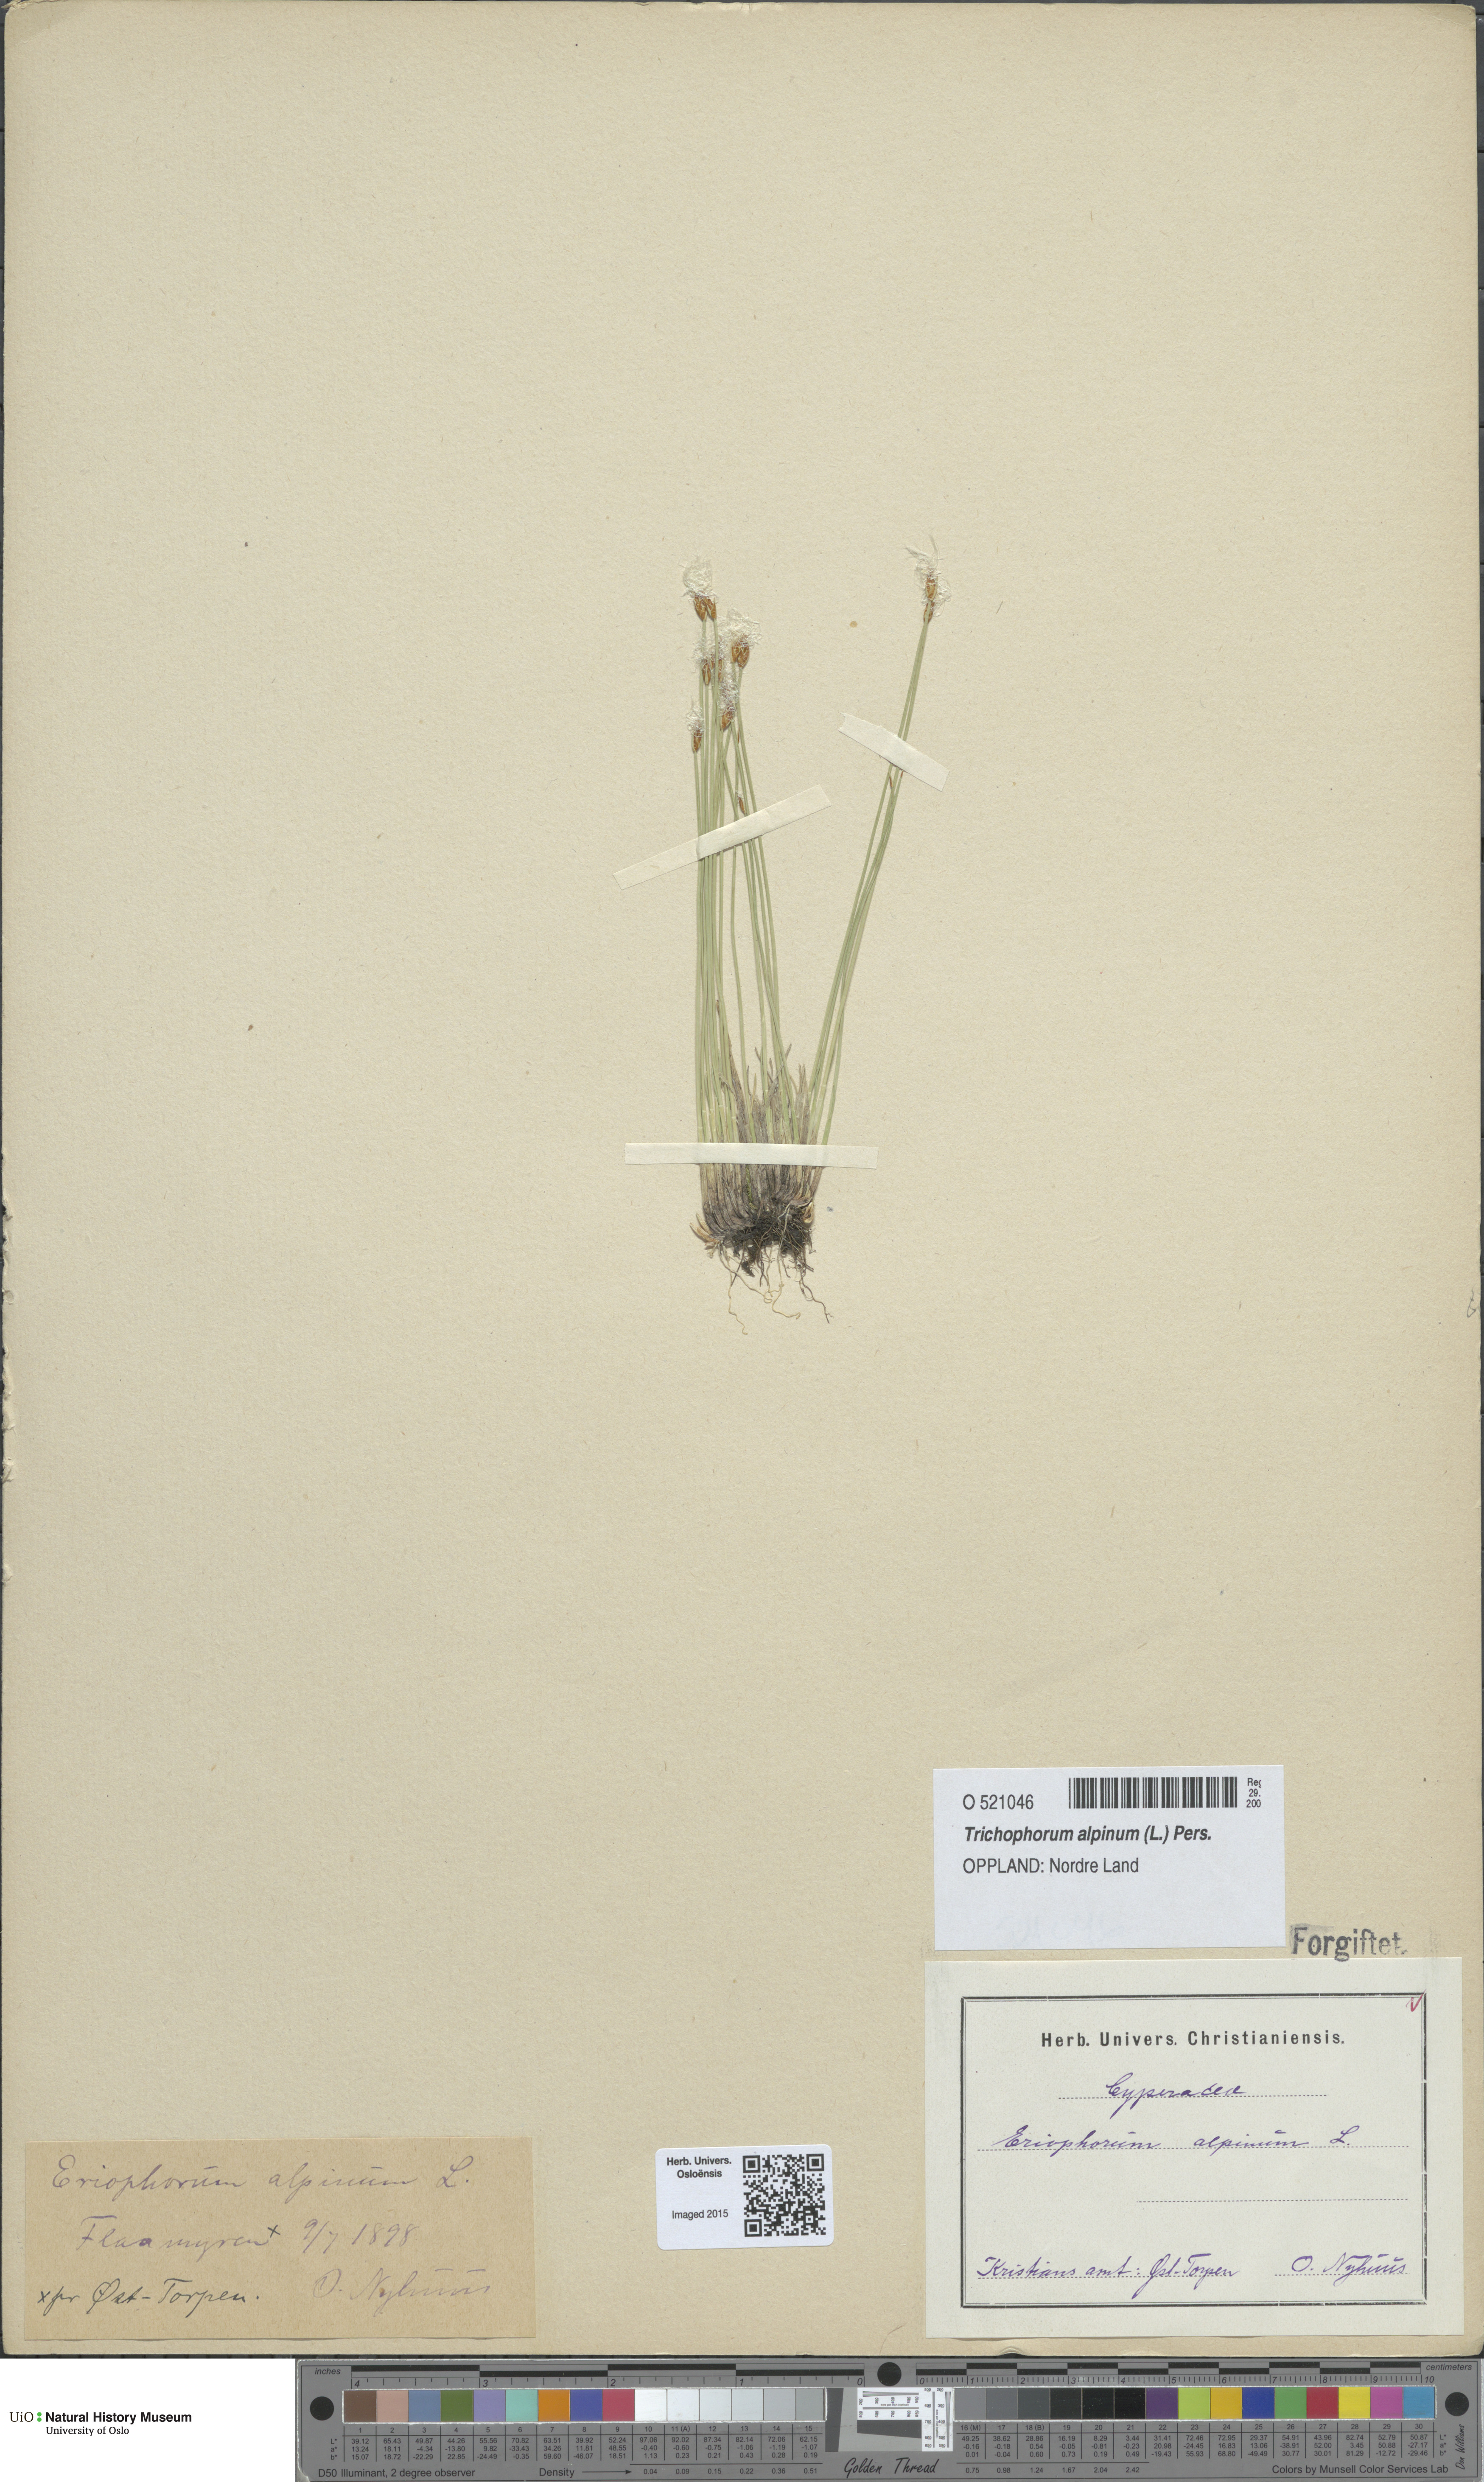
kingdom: Plantae
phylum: Tracheophyta
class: Liliopsida
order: Poales
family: Cyperaceae
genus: Trichophorum
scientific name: Trichophorum alpinum
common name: Alpine bulrush
